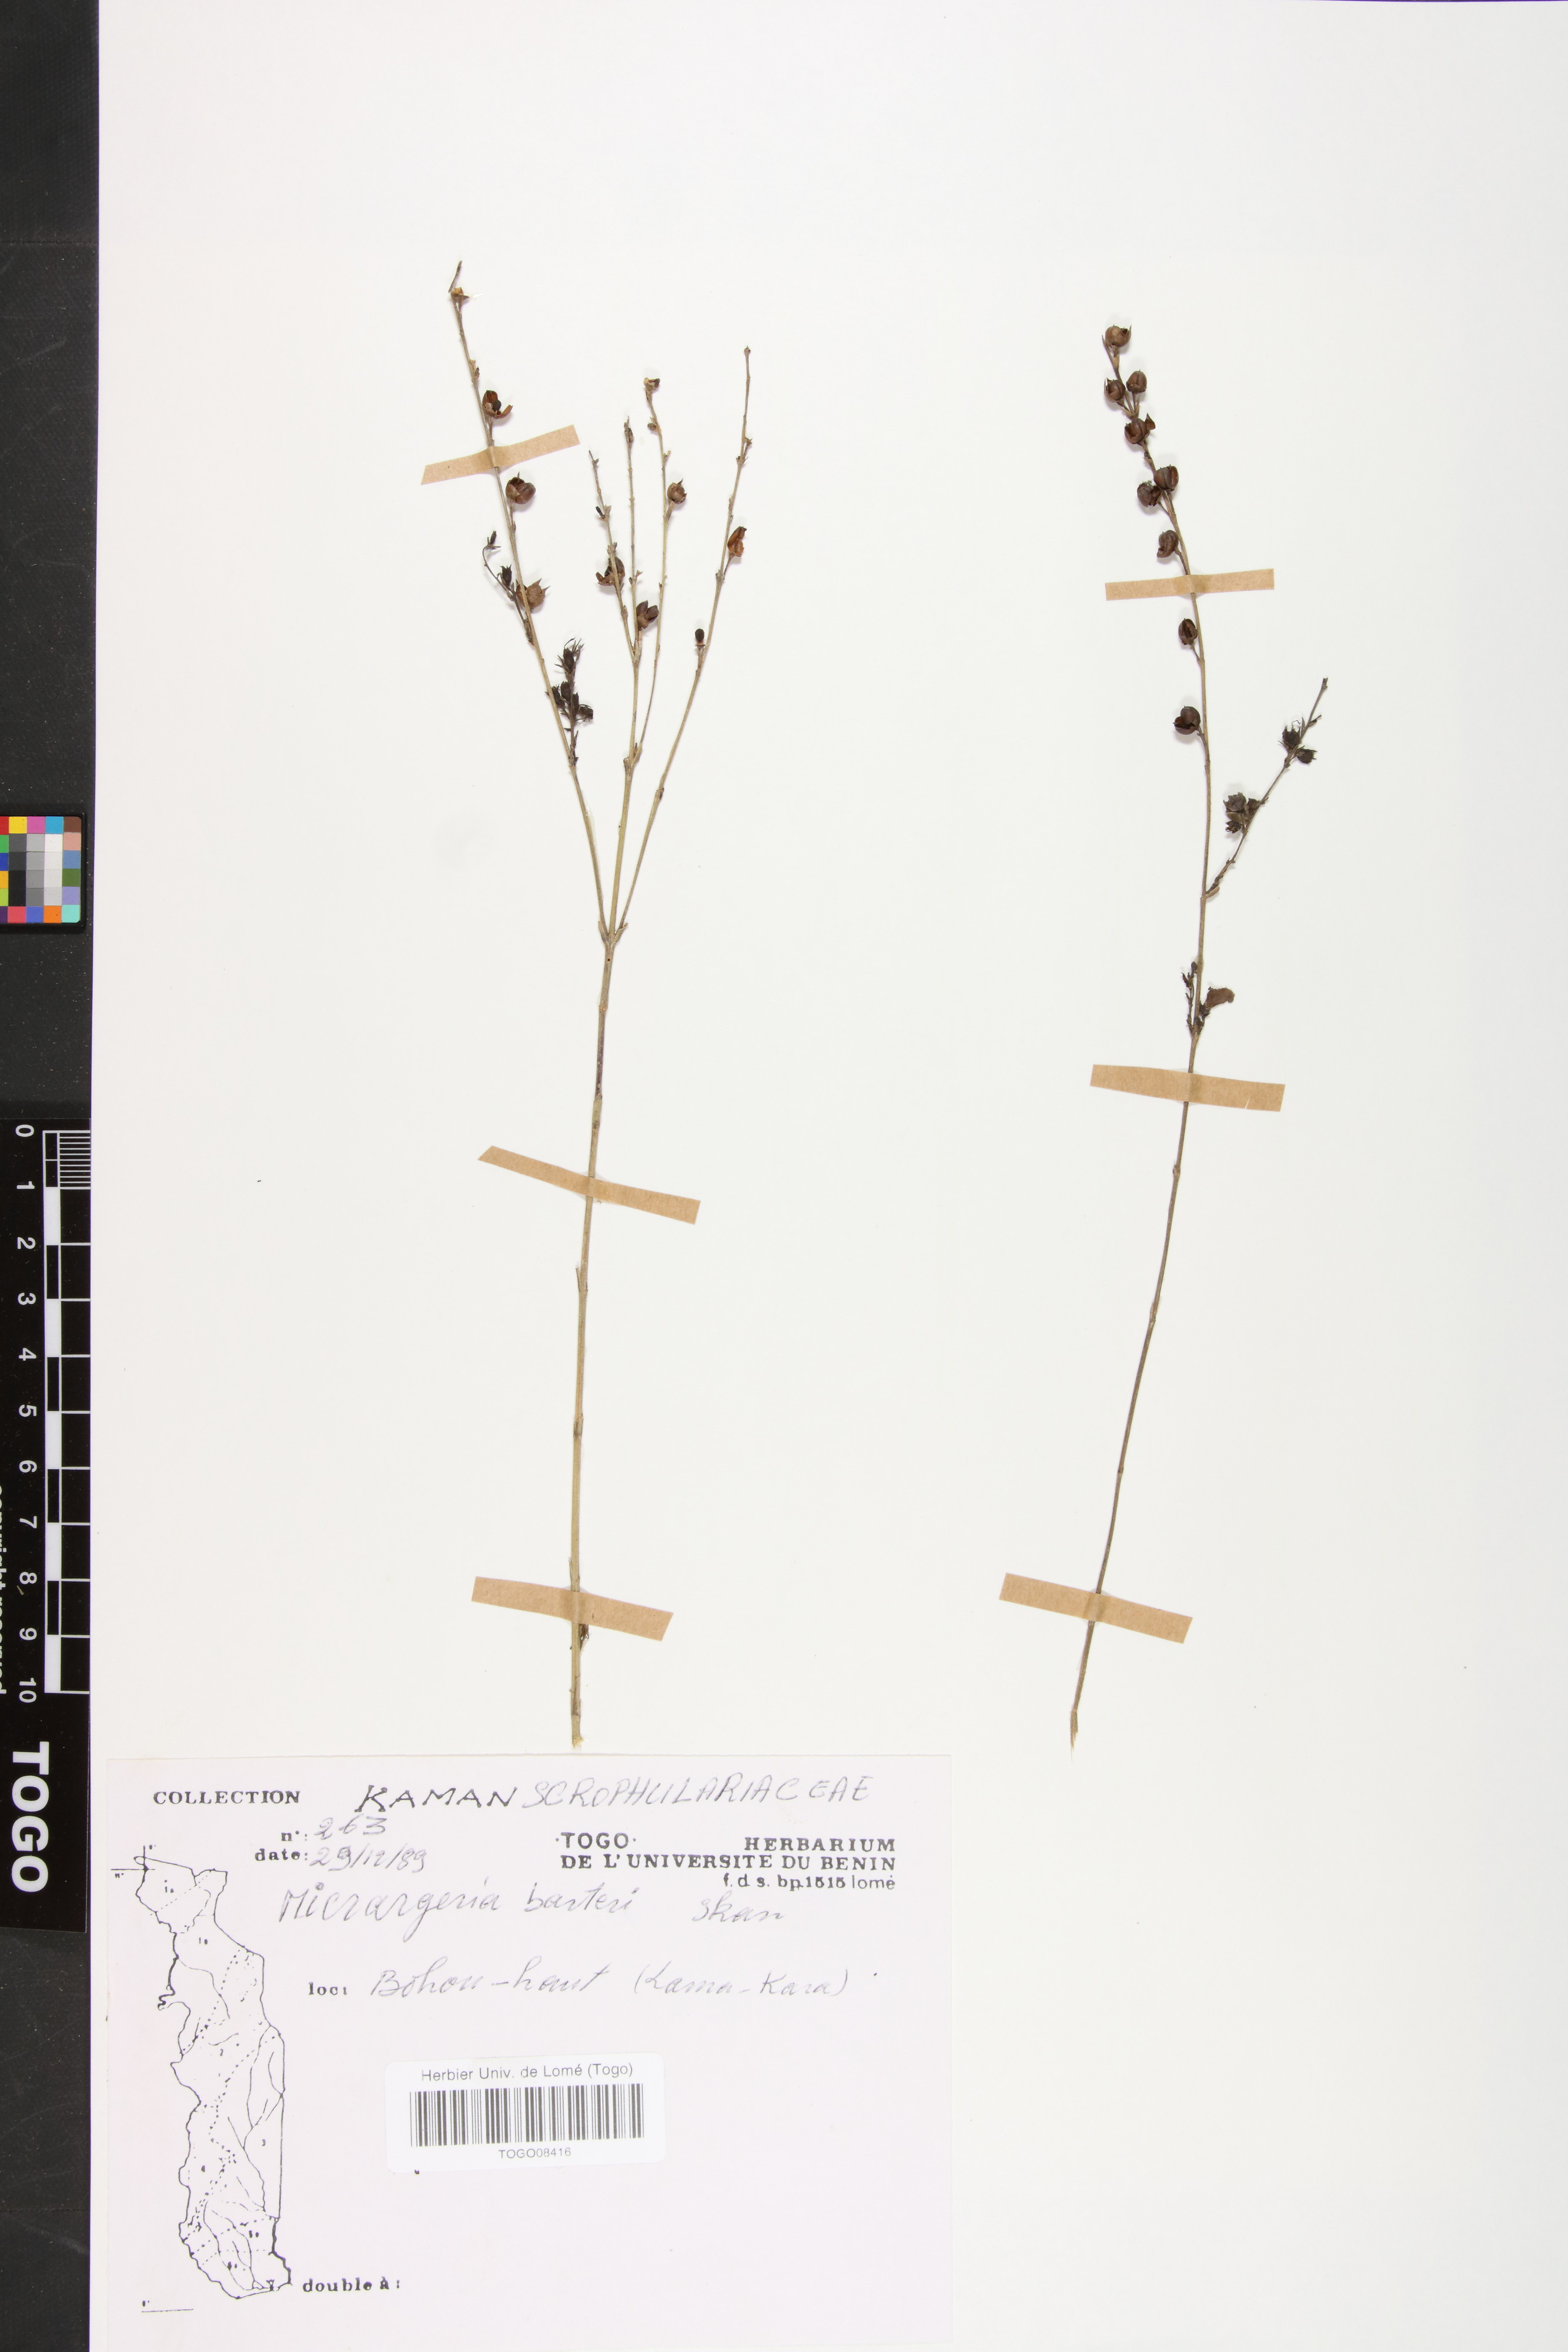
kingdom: Plantae
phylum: Tracheophyta
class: Magnoliopsida
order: Lamiales
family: Orobanchaceae
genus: Micrargeria
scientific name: Micrargeria filiformis
